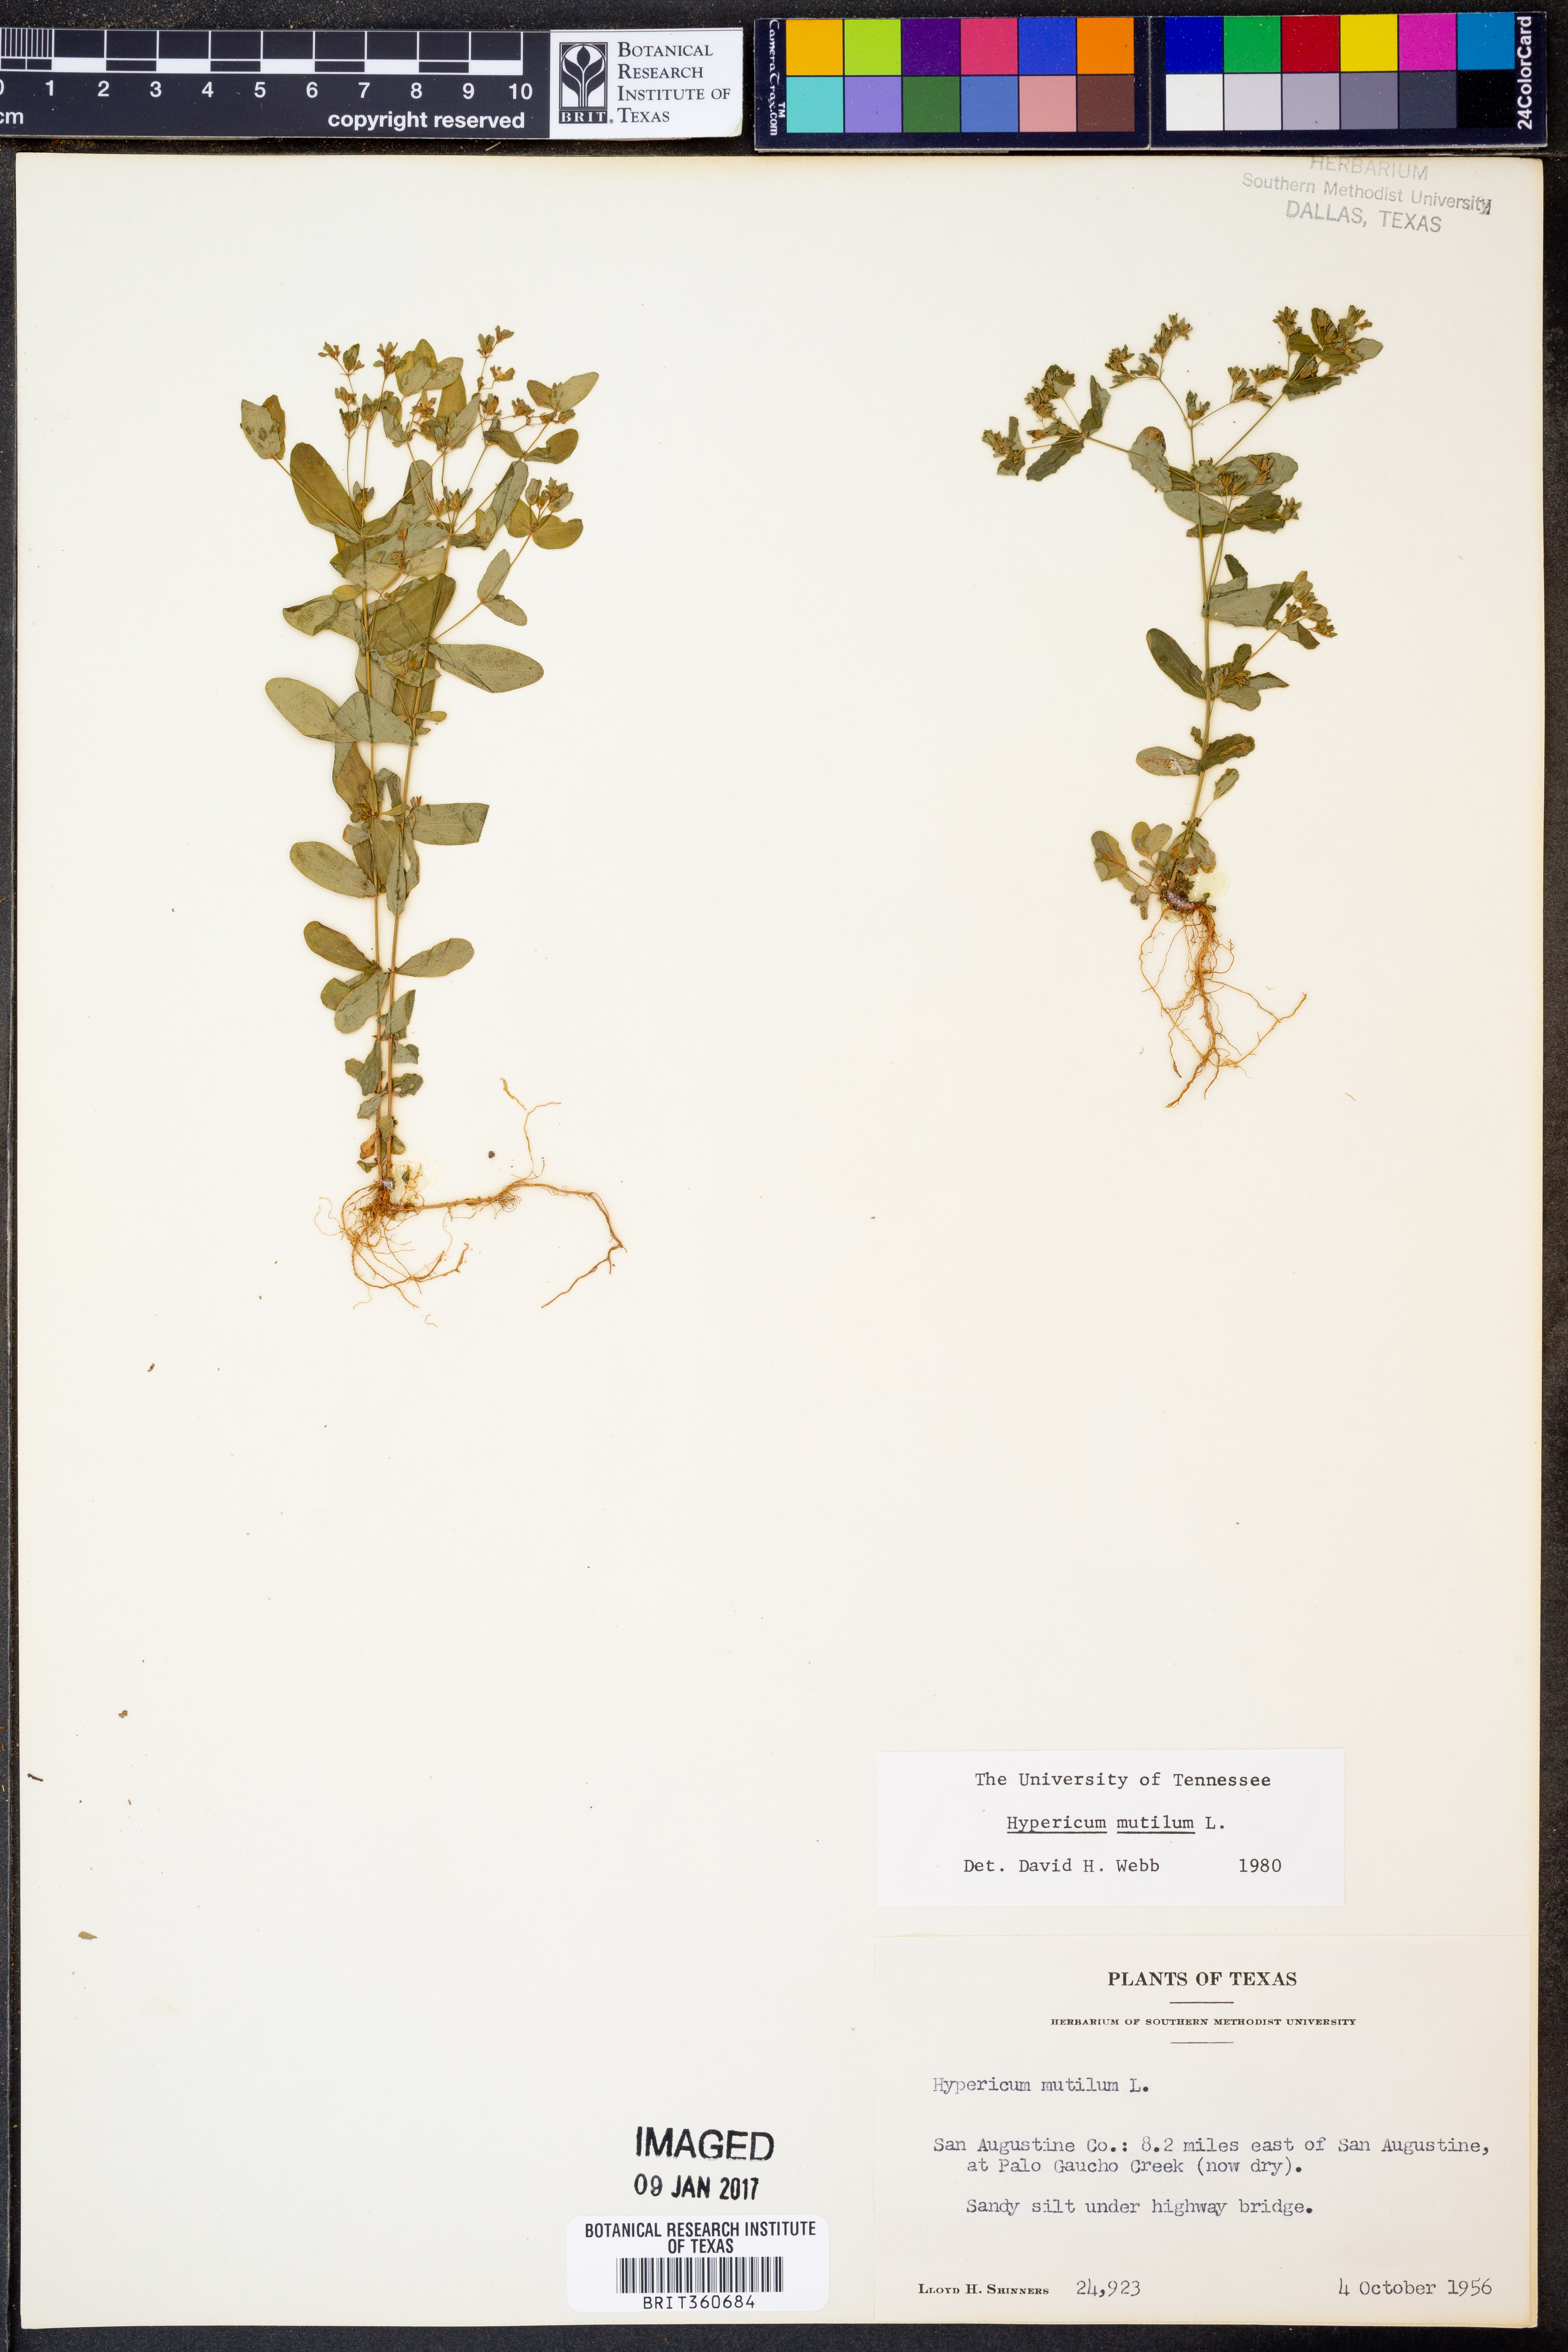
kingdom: Plantae
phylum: Tracheophyta
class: Magnoliopsida
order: Malpighiales
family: Hypericaceae
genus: Hypericum
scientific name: Hypericum mutilum
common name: Dwarf st. john's-wort
